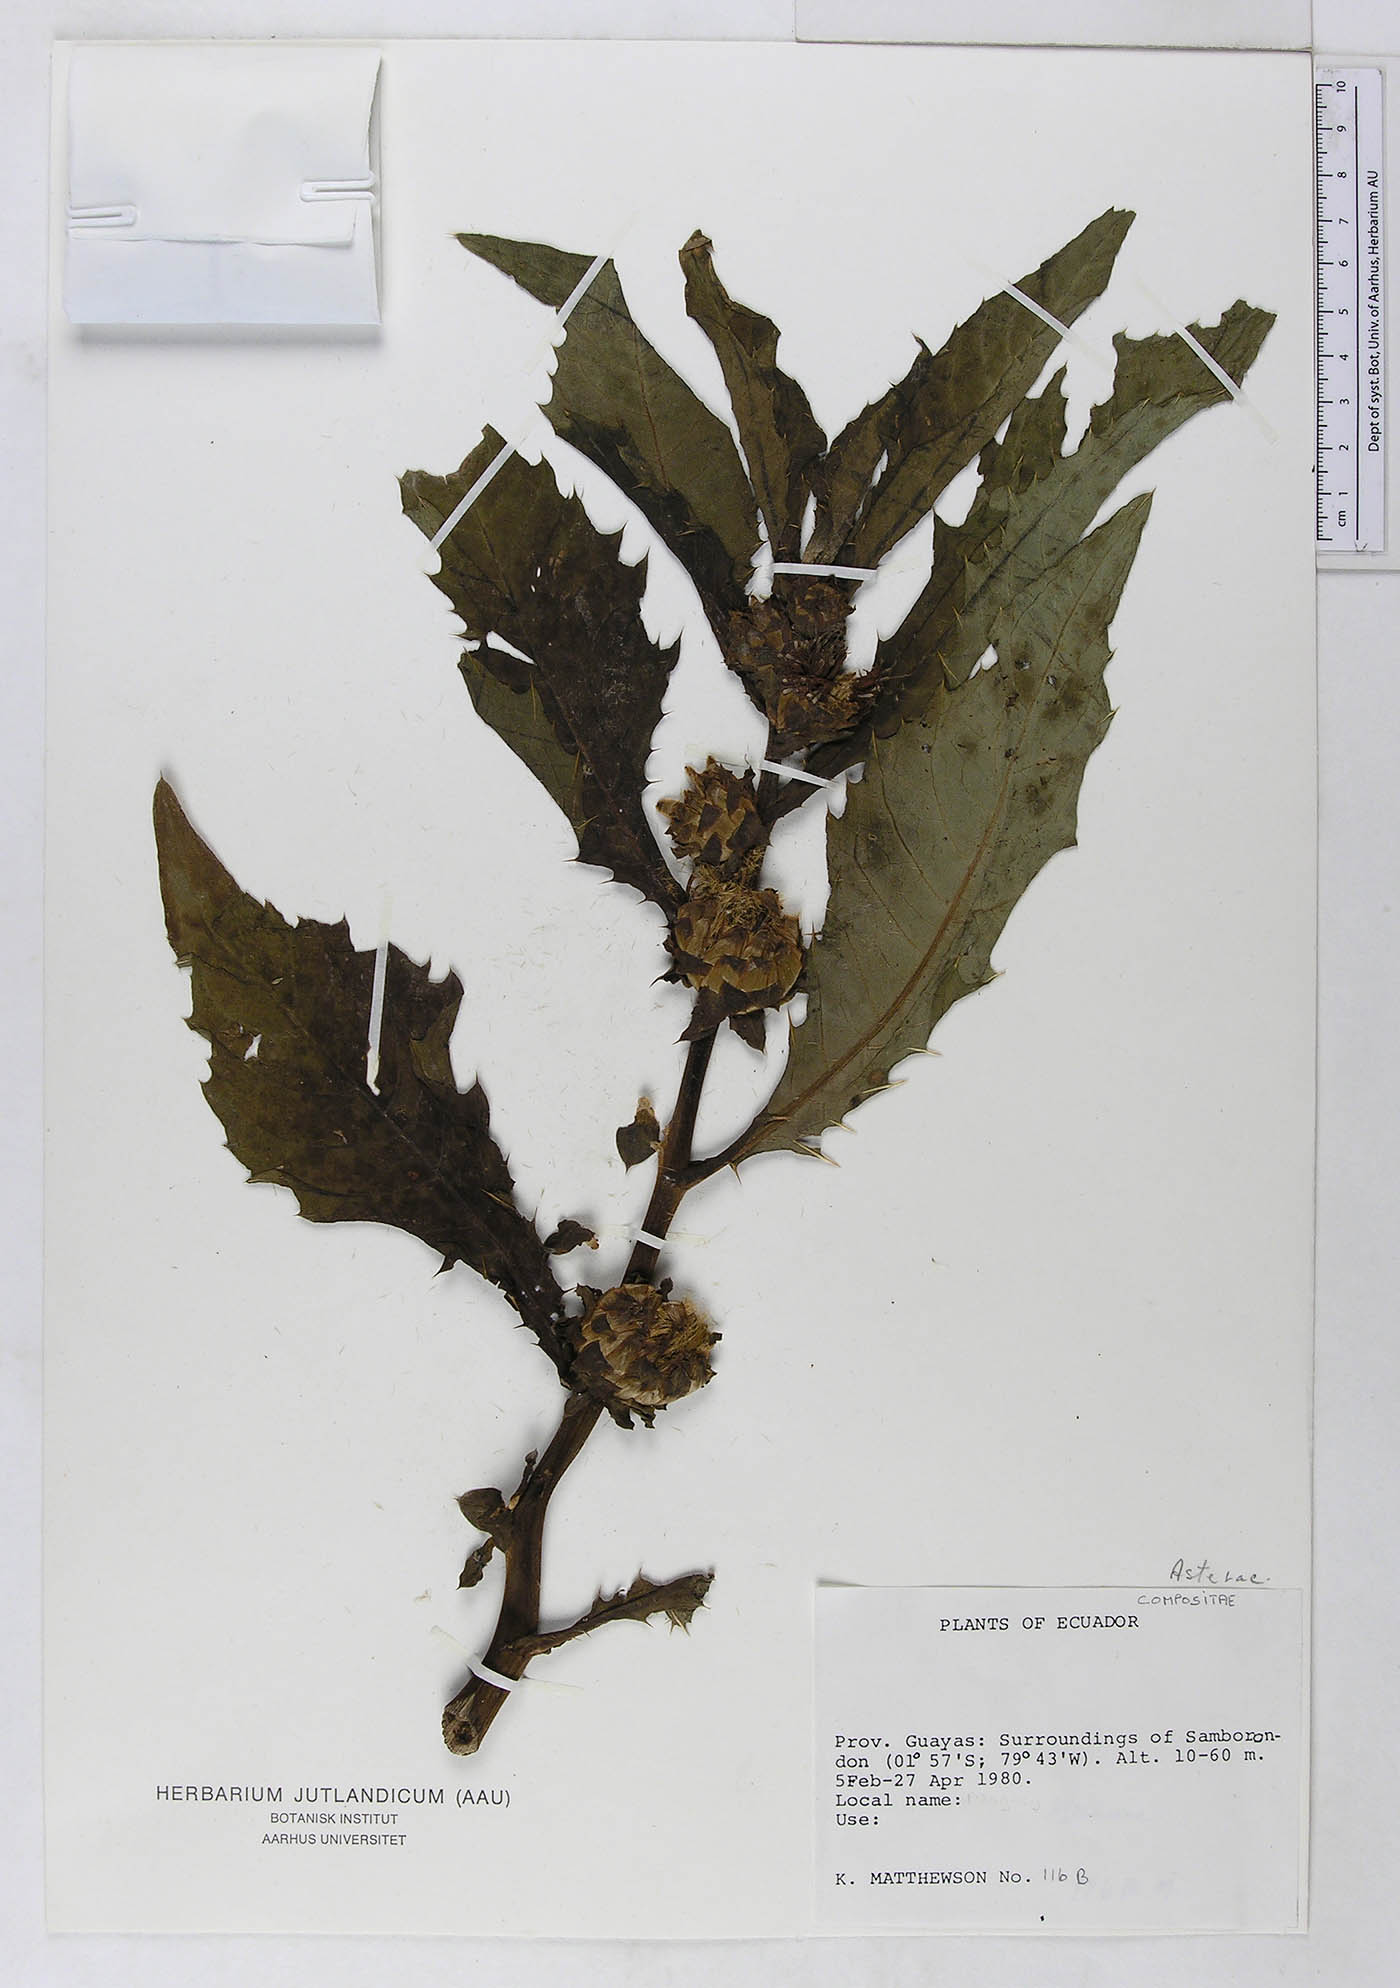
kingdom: Plantae
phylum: Tracheophyta
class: Magnoliopsida
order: Asterales
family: Asteraceae
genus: Pacourina
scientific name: Pacourina edulis
